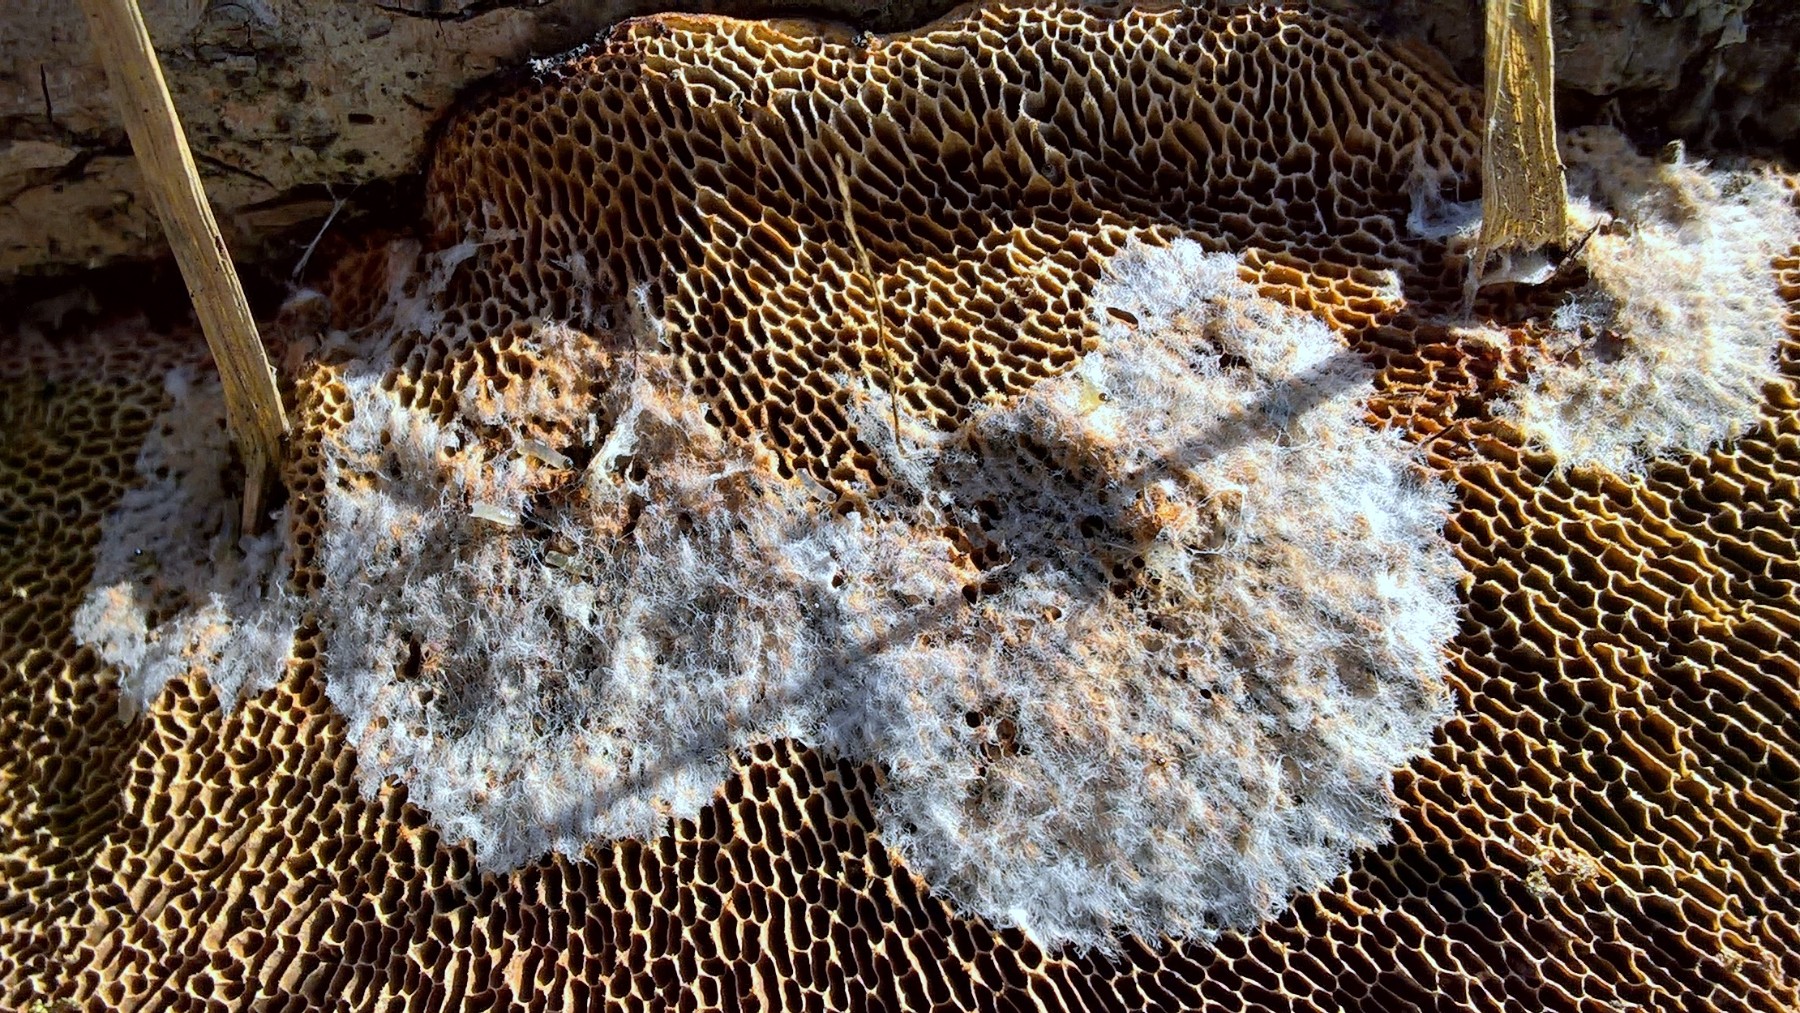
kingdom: Fungi
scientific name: Fungi
